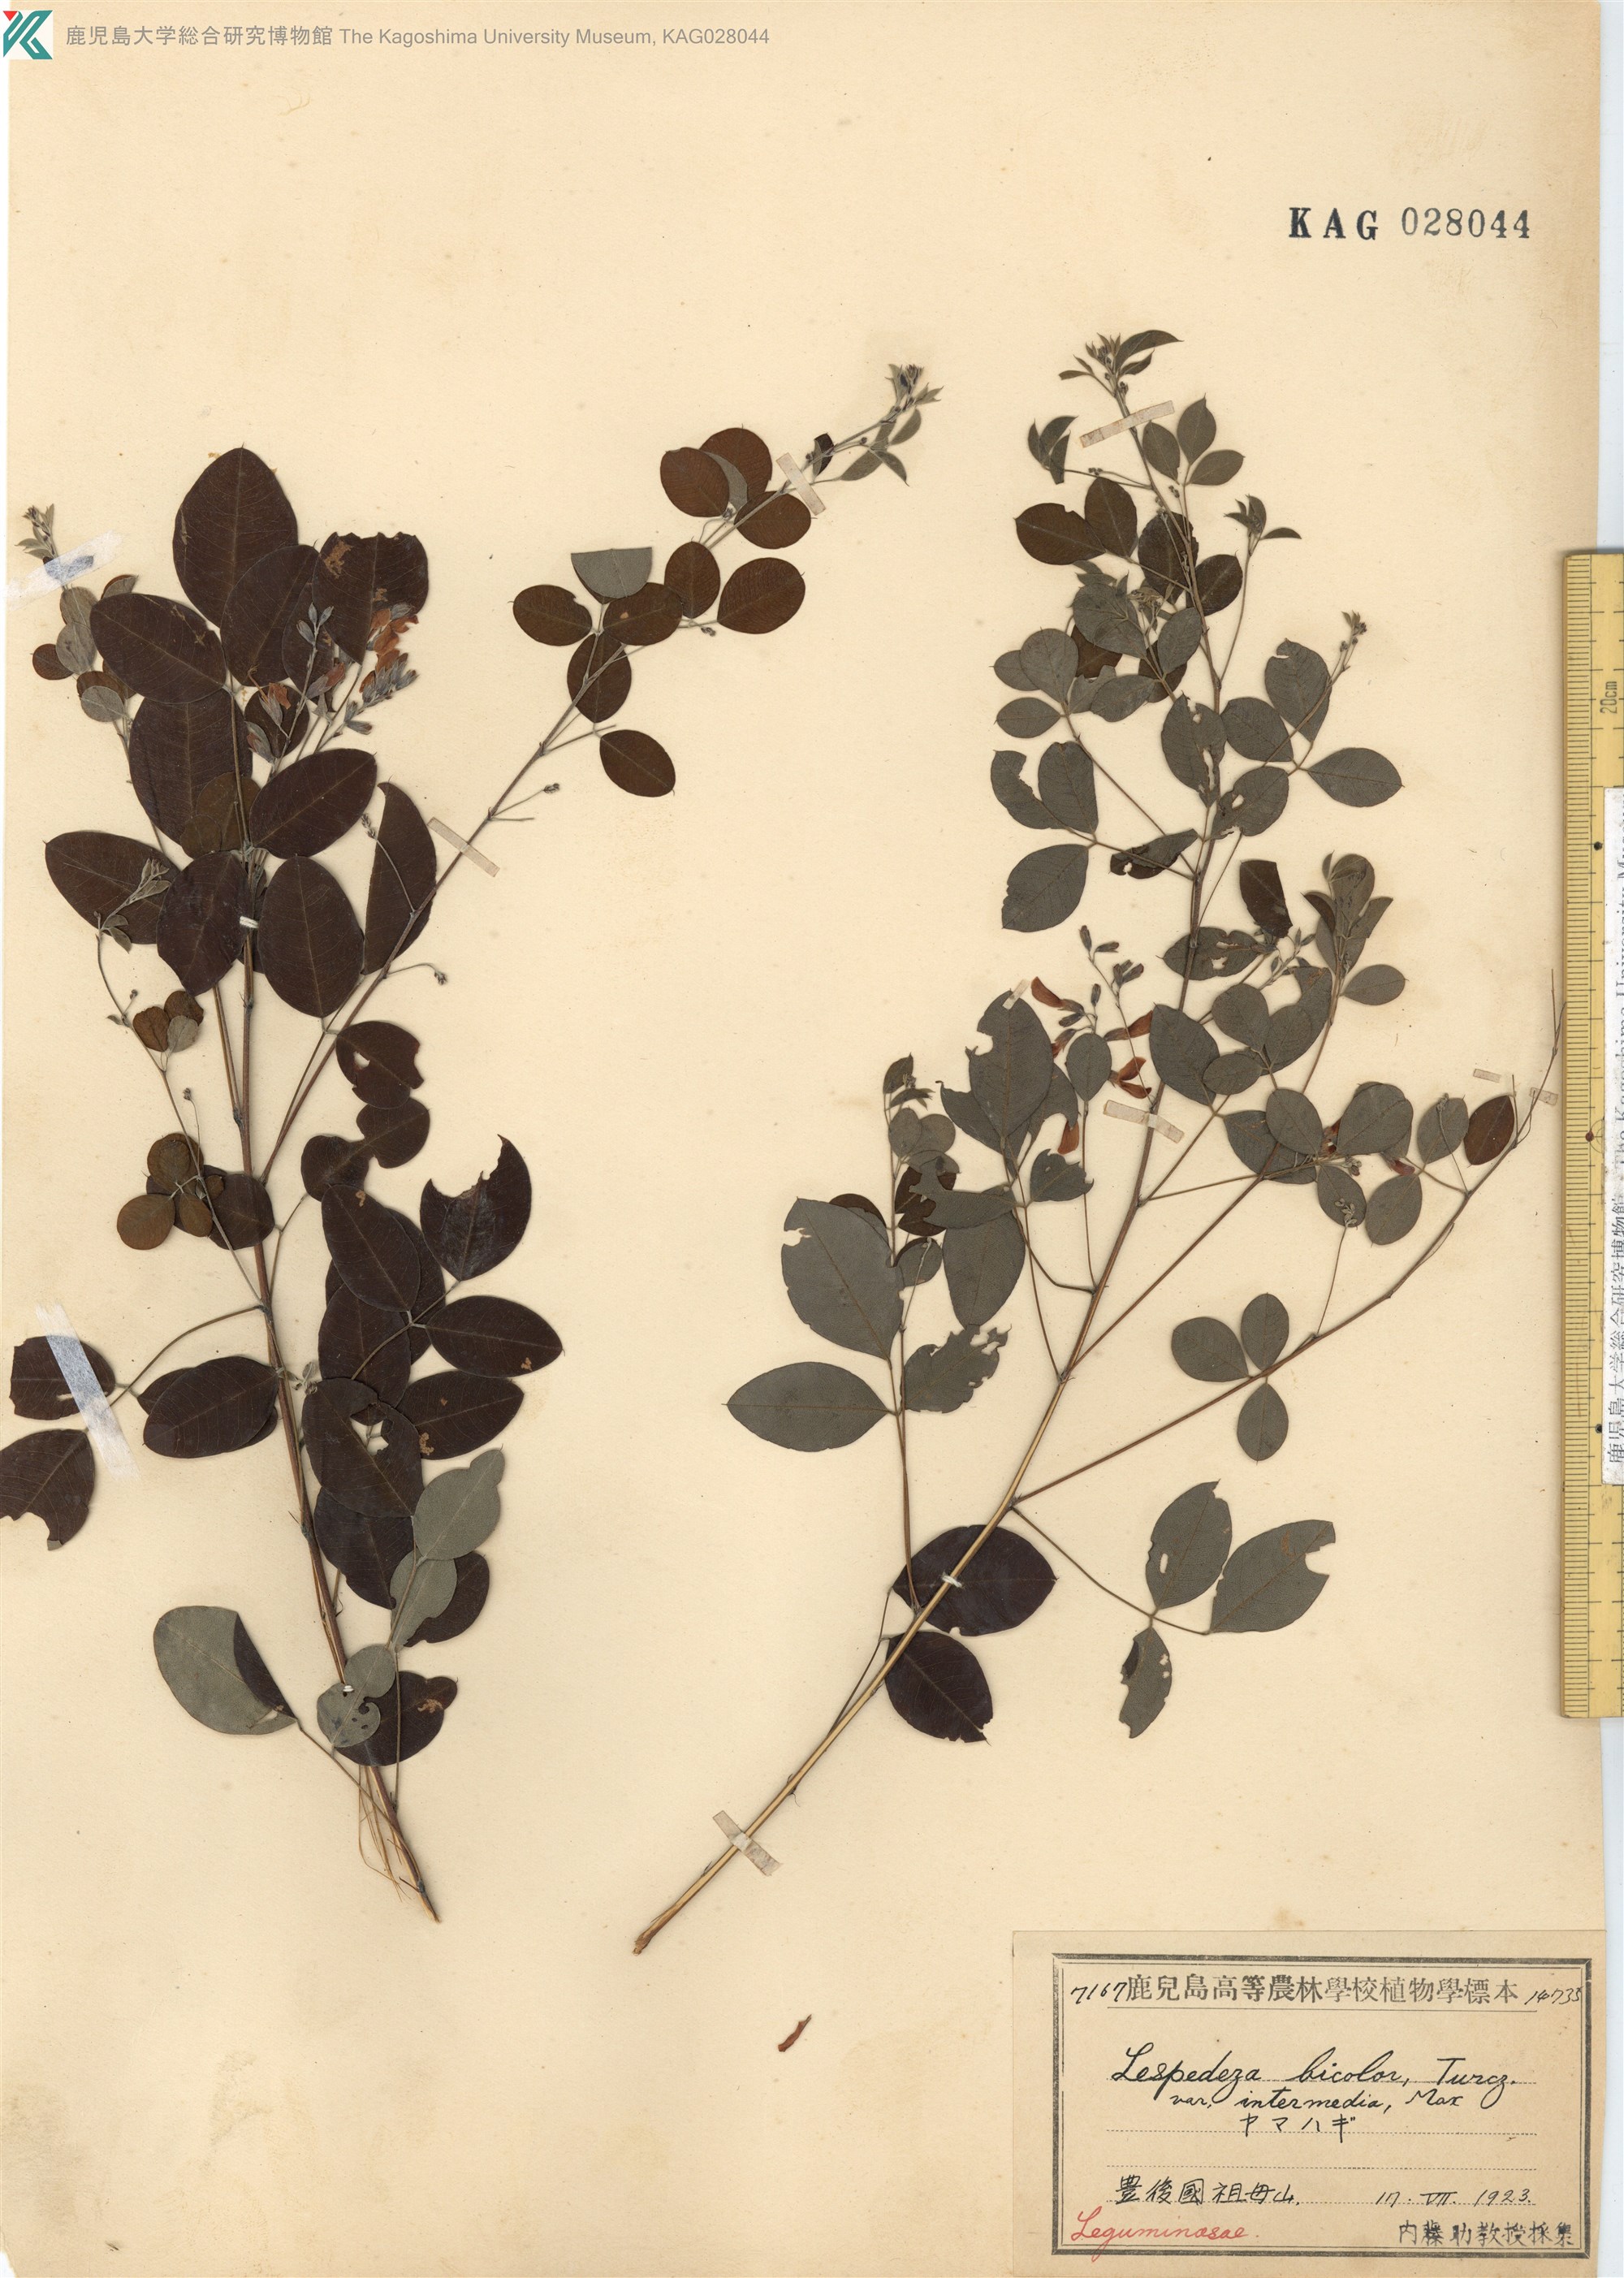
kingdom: Plantae
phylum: Tracheophyta
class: Magnoliopsida
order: Fabales
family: Fabaceae
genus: Lespedeza
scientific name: Lespedeza bicolor
